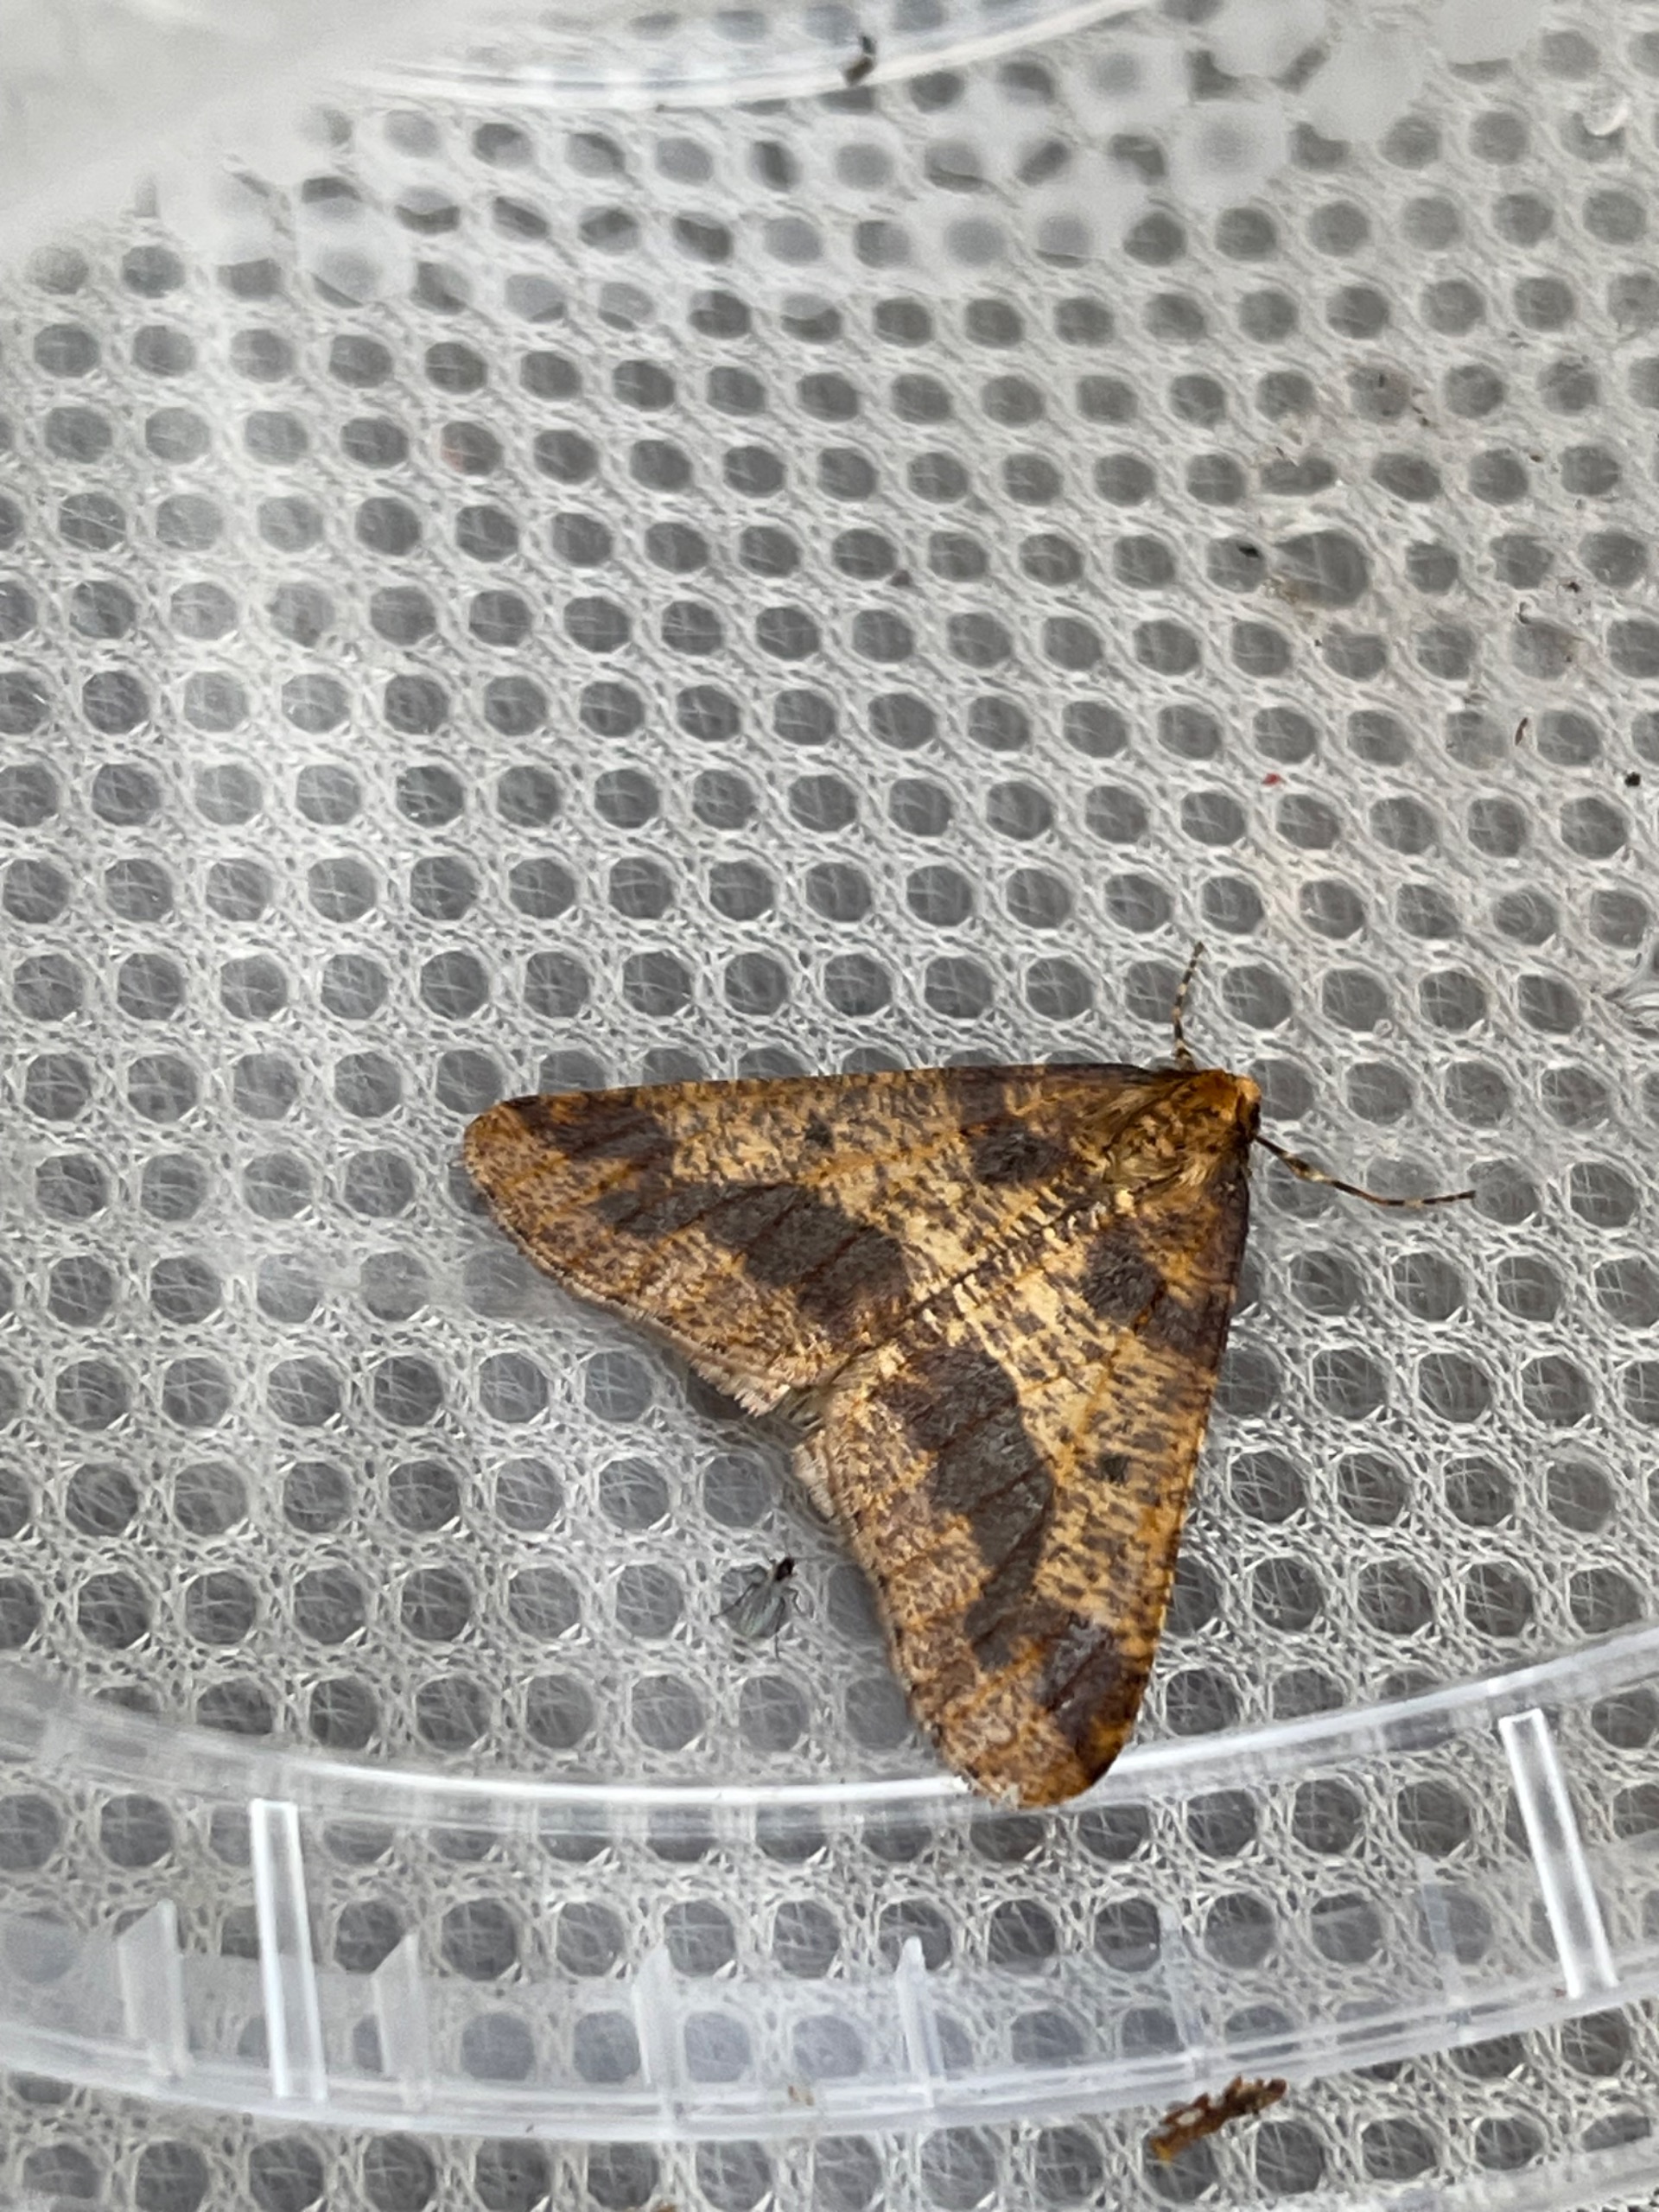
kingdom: Animalia
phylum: Arthropoda
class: Insecta
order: Lepidoptera
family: Geometridae
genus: Erannis
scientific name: Erannis defoliaria
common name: Stor frostmåler
